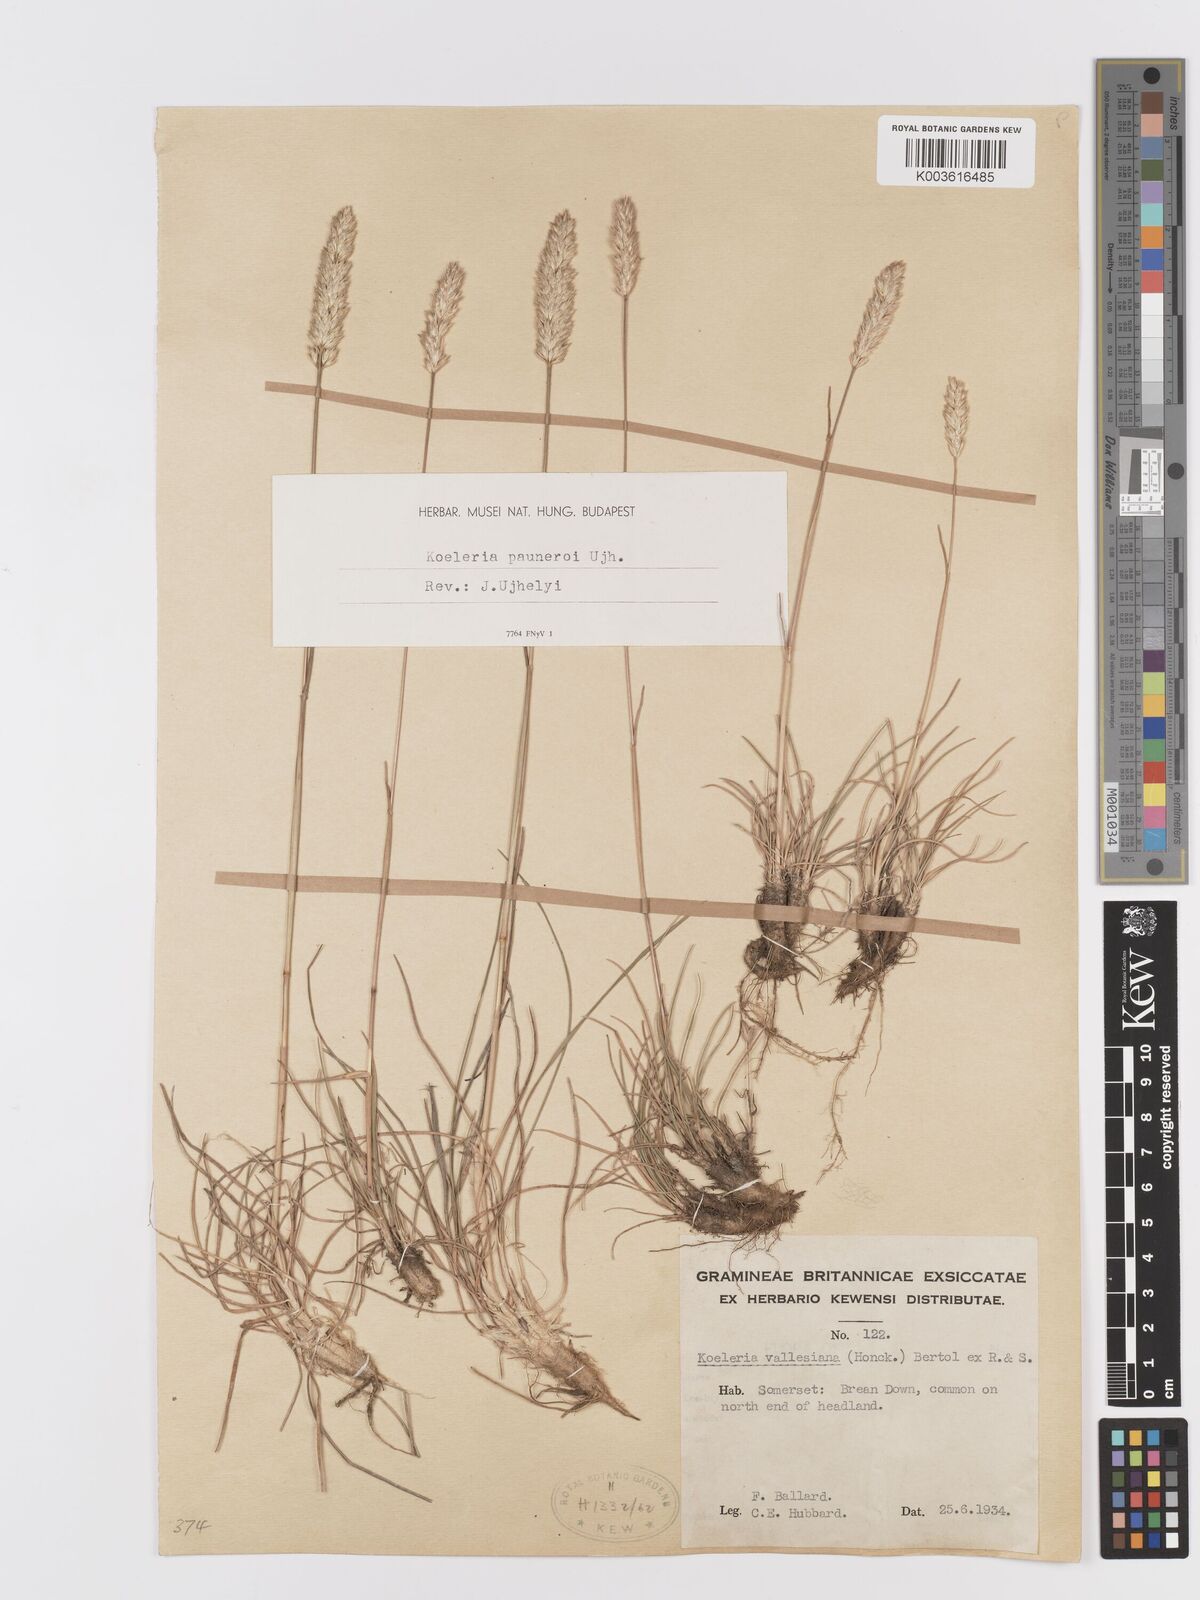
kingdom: Plantae
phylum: Tracheophyta
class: Liliopsida
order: Poales
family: Poaceae
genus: Koeleria
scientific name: Koeleria vallesiana
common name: Somerset hair-grass
